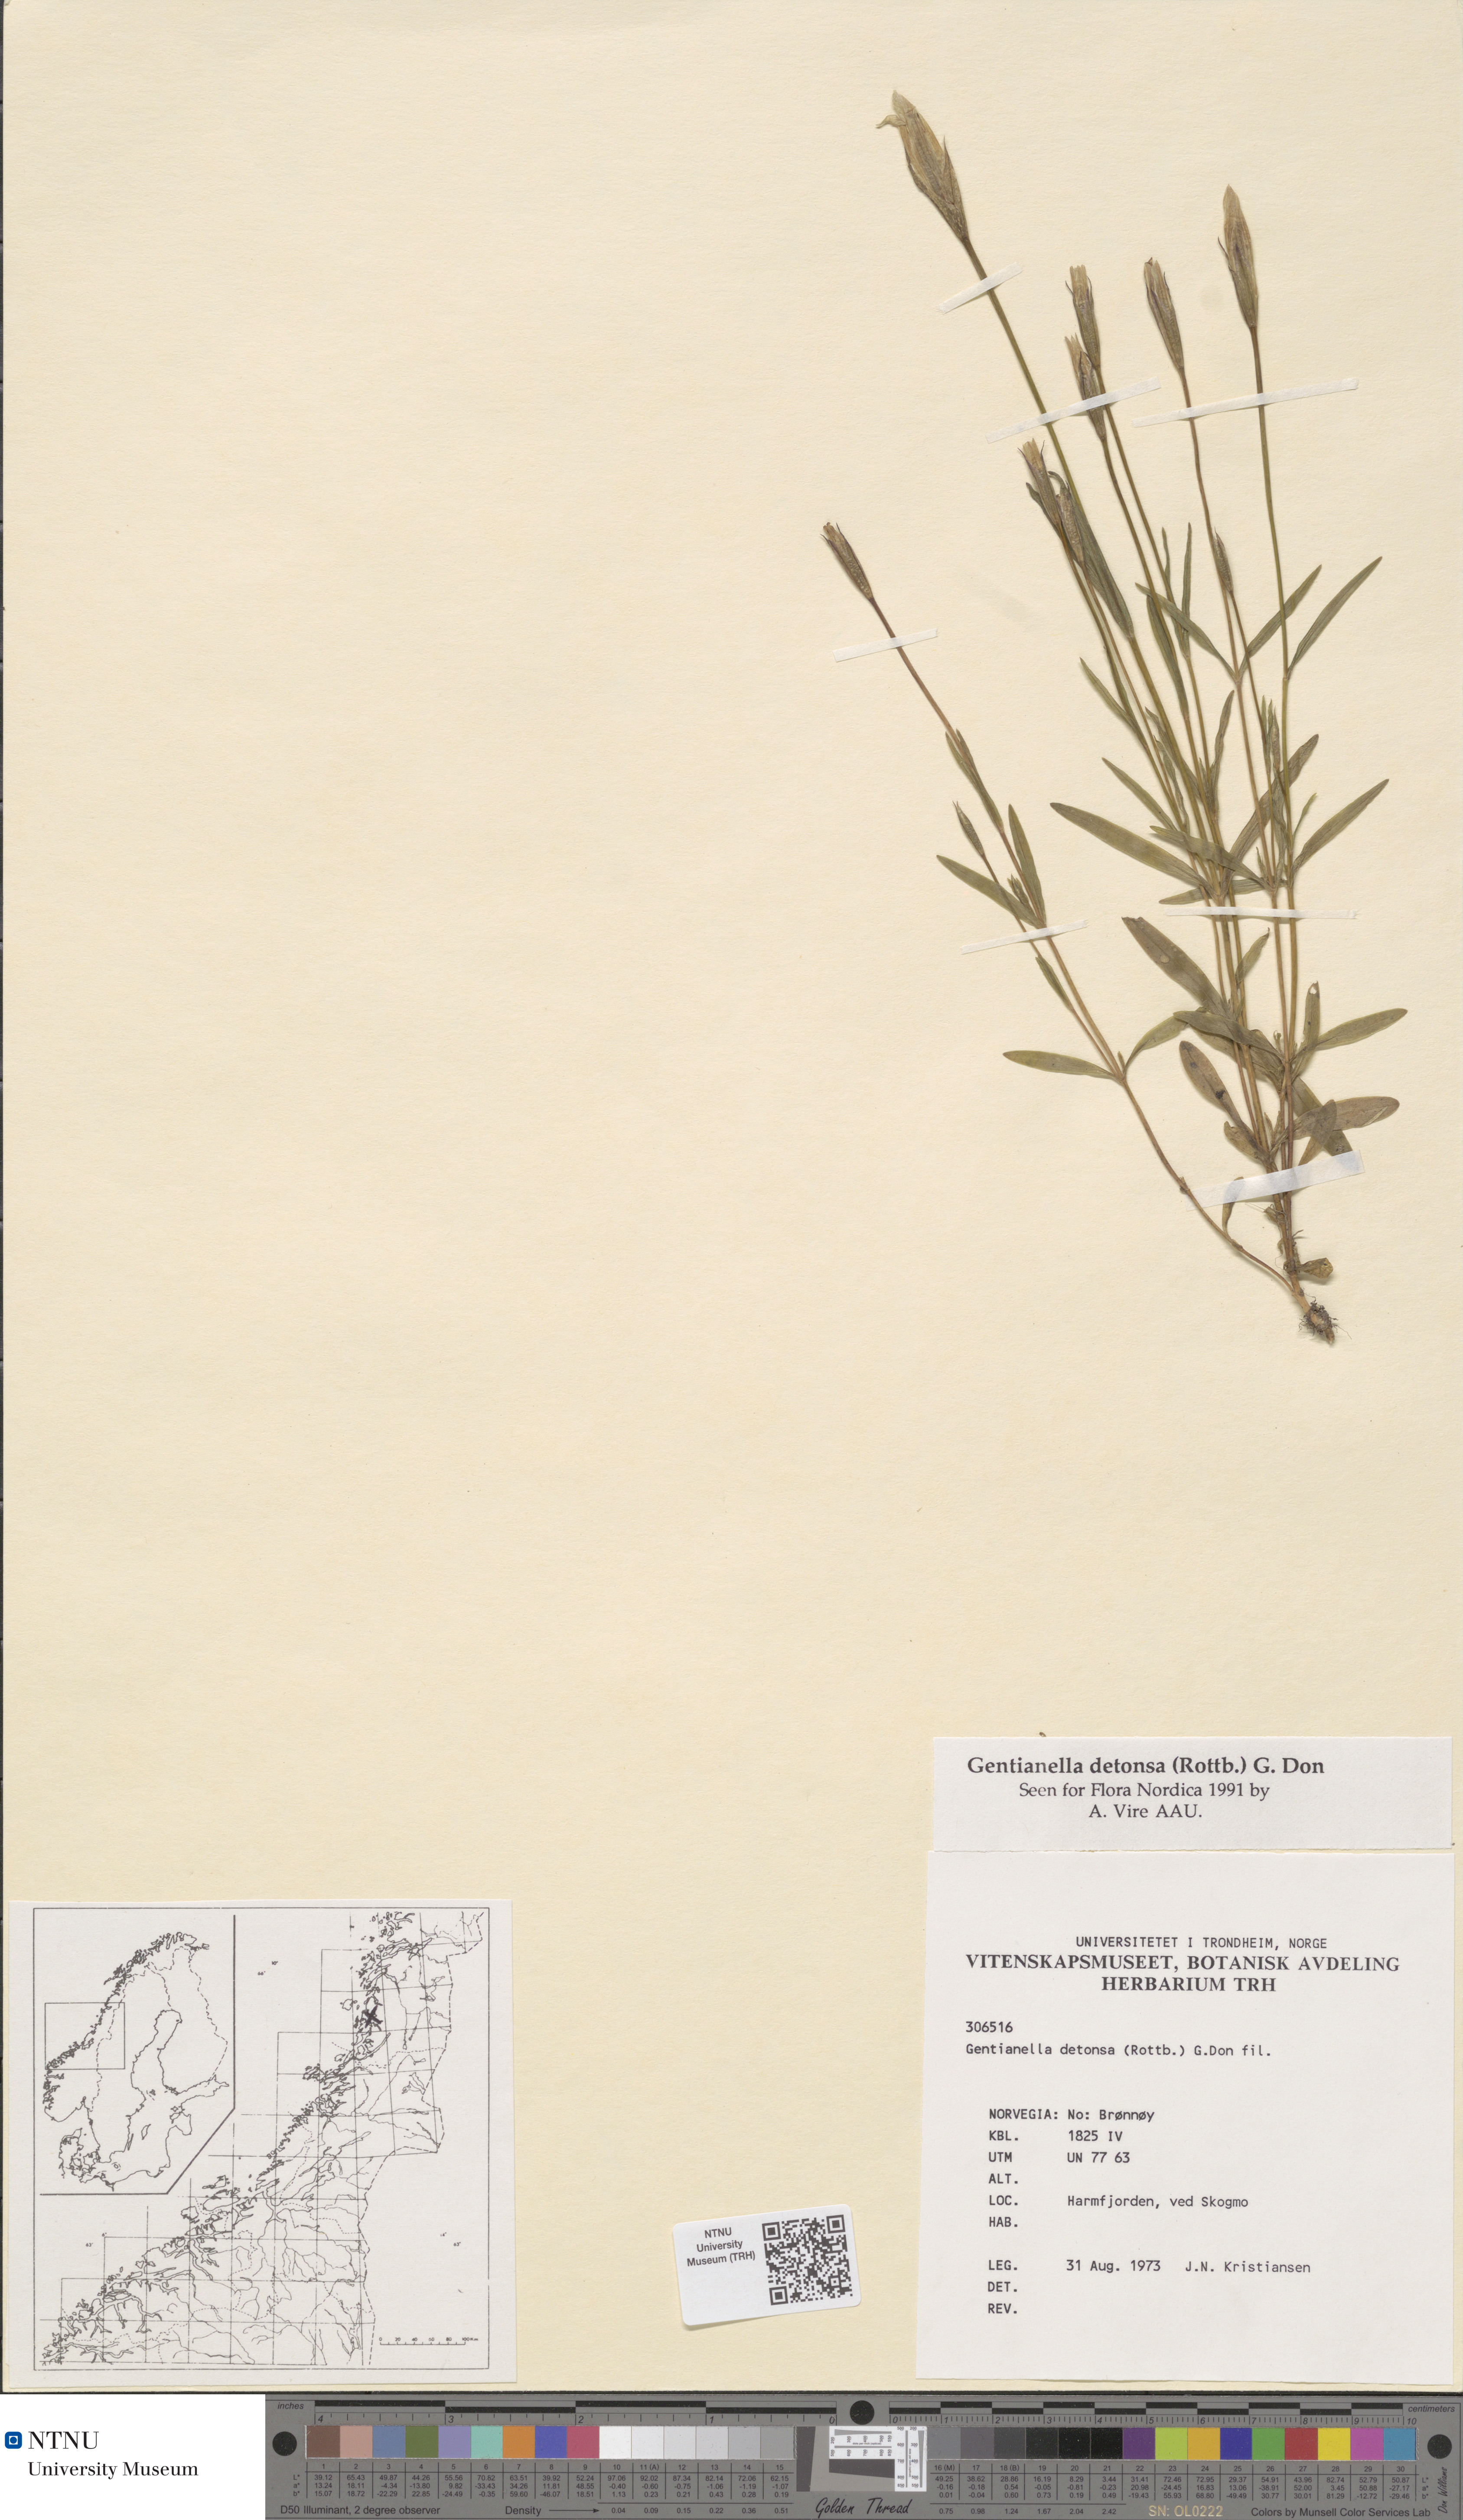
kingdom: Plantae
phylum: Tracheophyta
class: Magnoliopsida
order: Gentianales
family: Gentianaceae
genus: Gentianopsis
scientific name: Gentianopsis detonsa
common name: Fringed-gentian
